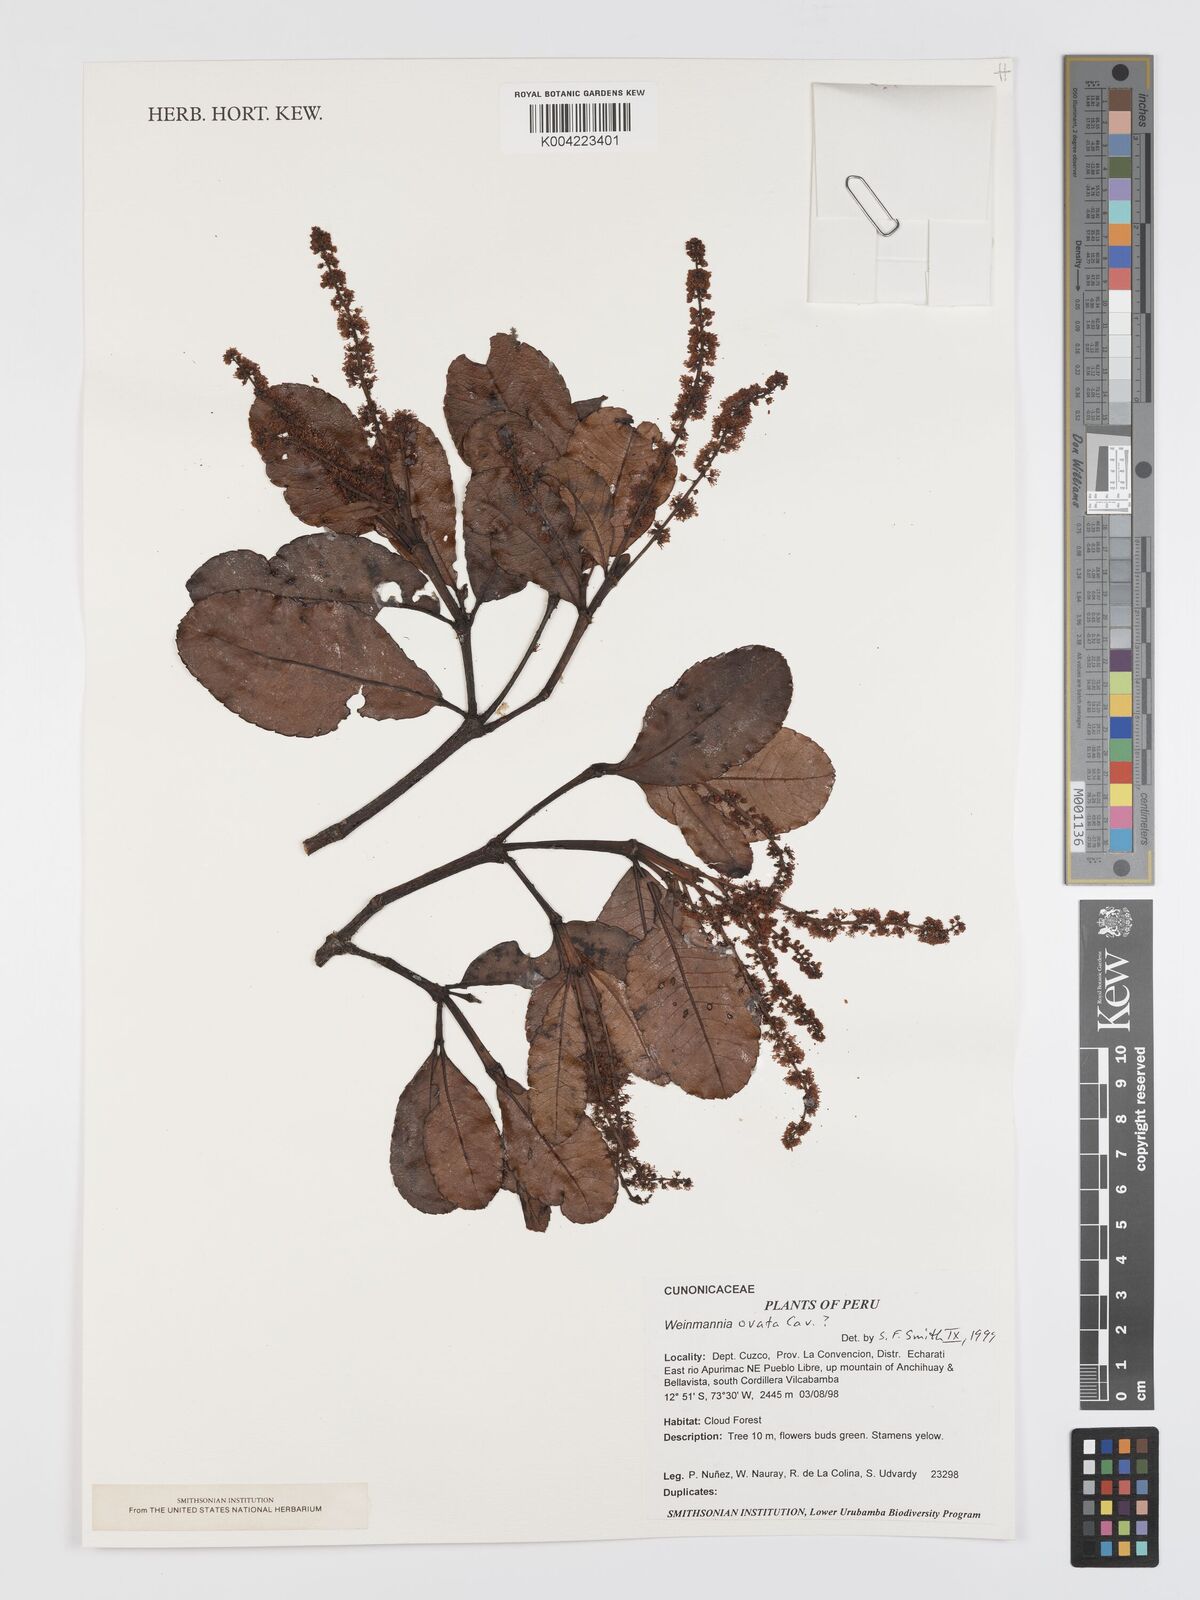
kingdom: Plantae
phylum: Tracheophyta
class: Magnoliopsida
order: Oxalidales
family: Cunoniaceae
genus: Weinmannia
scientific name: Weinmannia ovata
